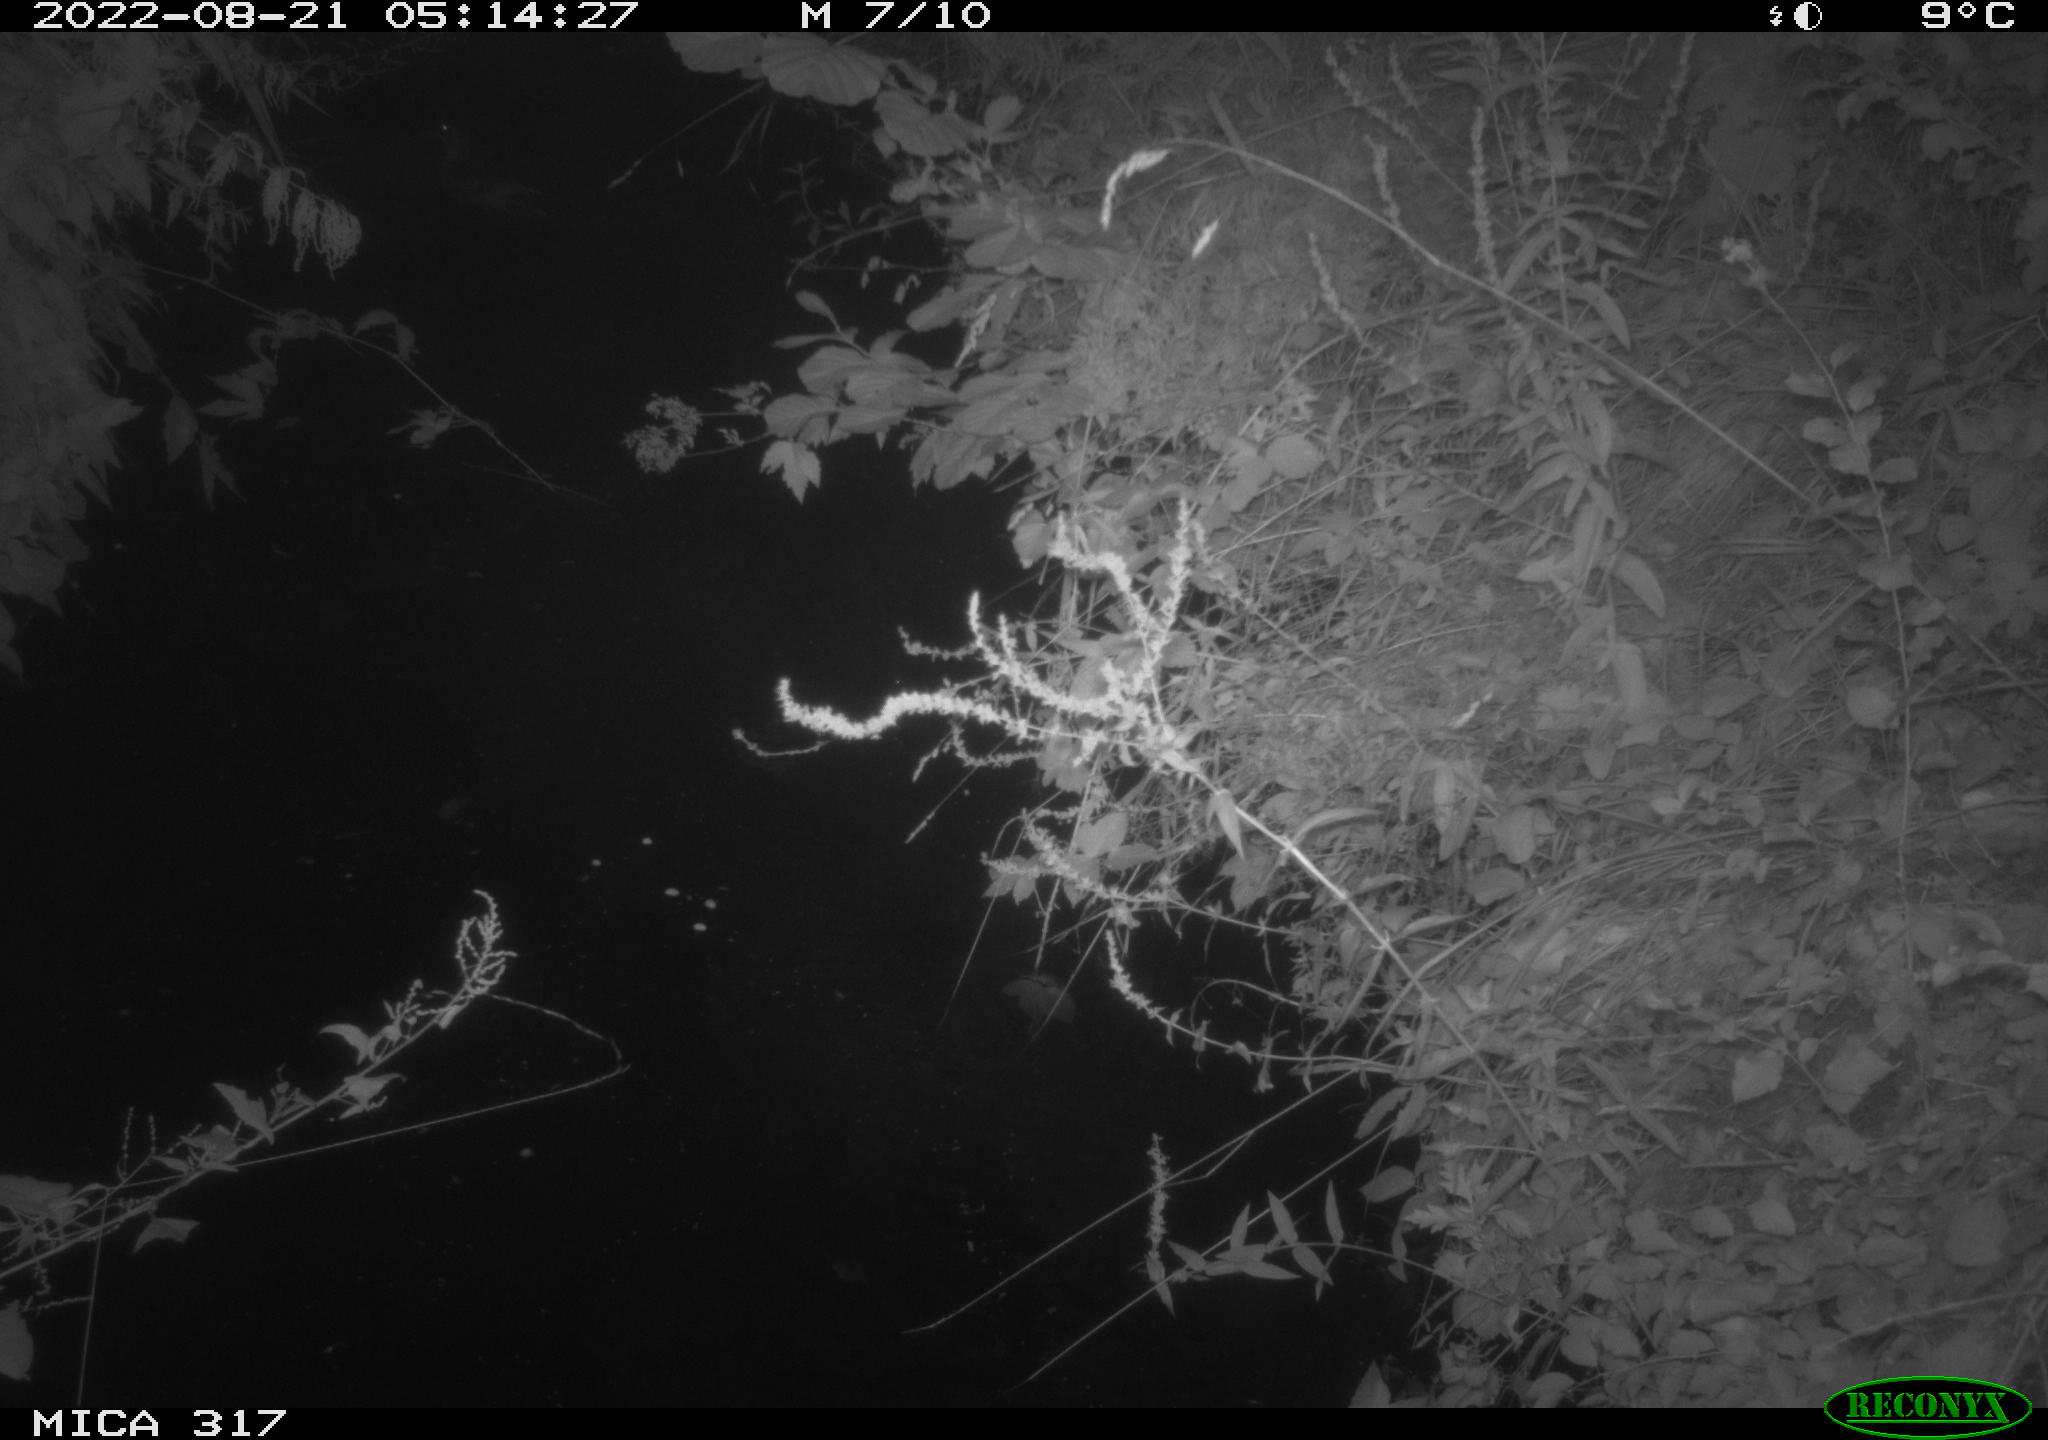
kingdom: Animalia
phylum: Chordata
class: Aves
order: Anseriformes
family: Anatidae
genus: Anas
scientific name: Anas
